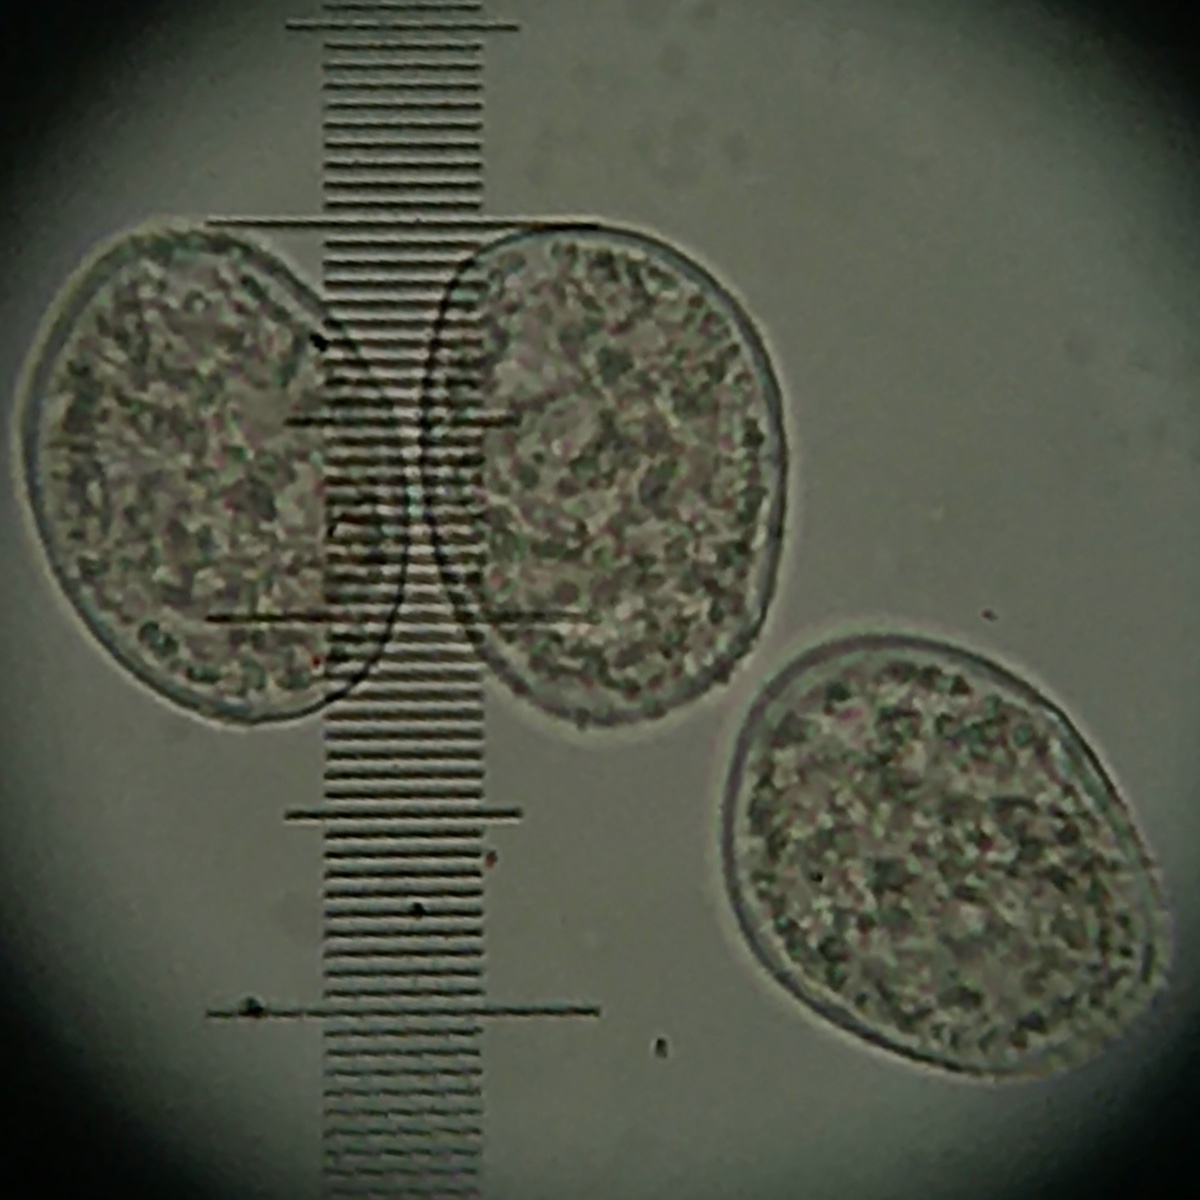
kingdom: Fungi
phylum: Basidiomycota
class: Pucciniomycetes
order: Pucciniales
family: Pucciniastraceae
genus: Naohidemyces
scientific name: Naohidemyces vaccinii
